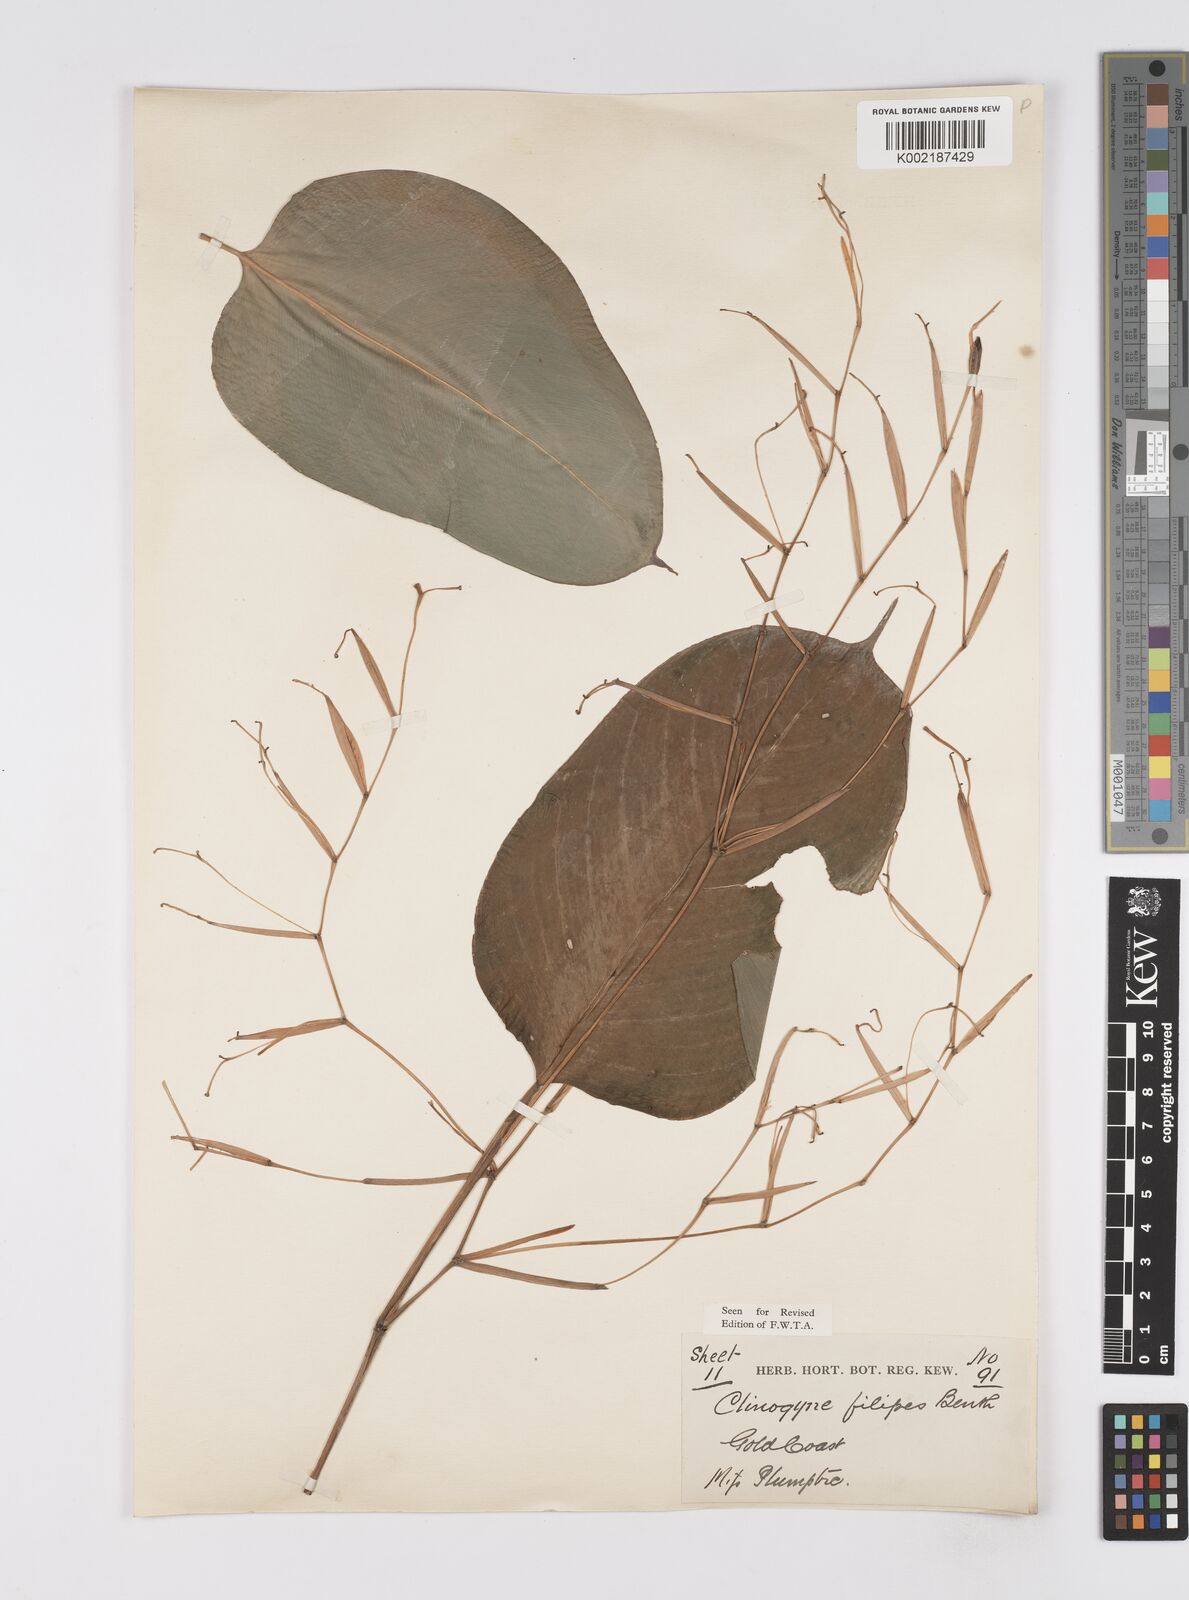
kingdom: Plantae
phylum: Tracheophyta
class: Liliopsida
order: Zingiberales
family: Marantaceae
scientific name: Marantaceae
